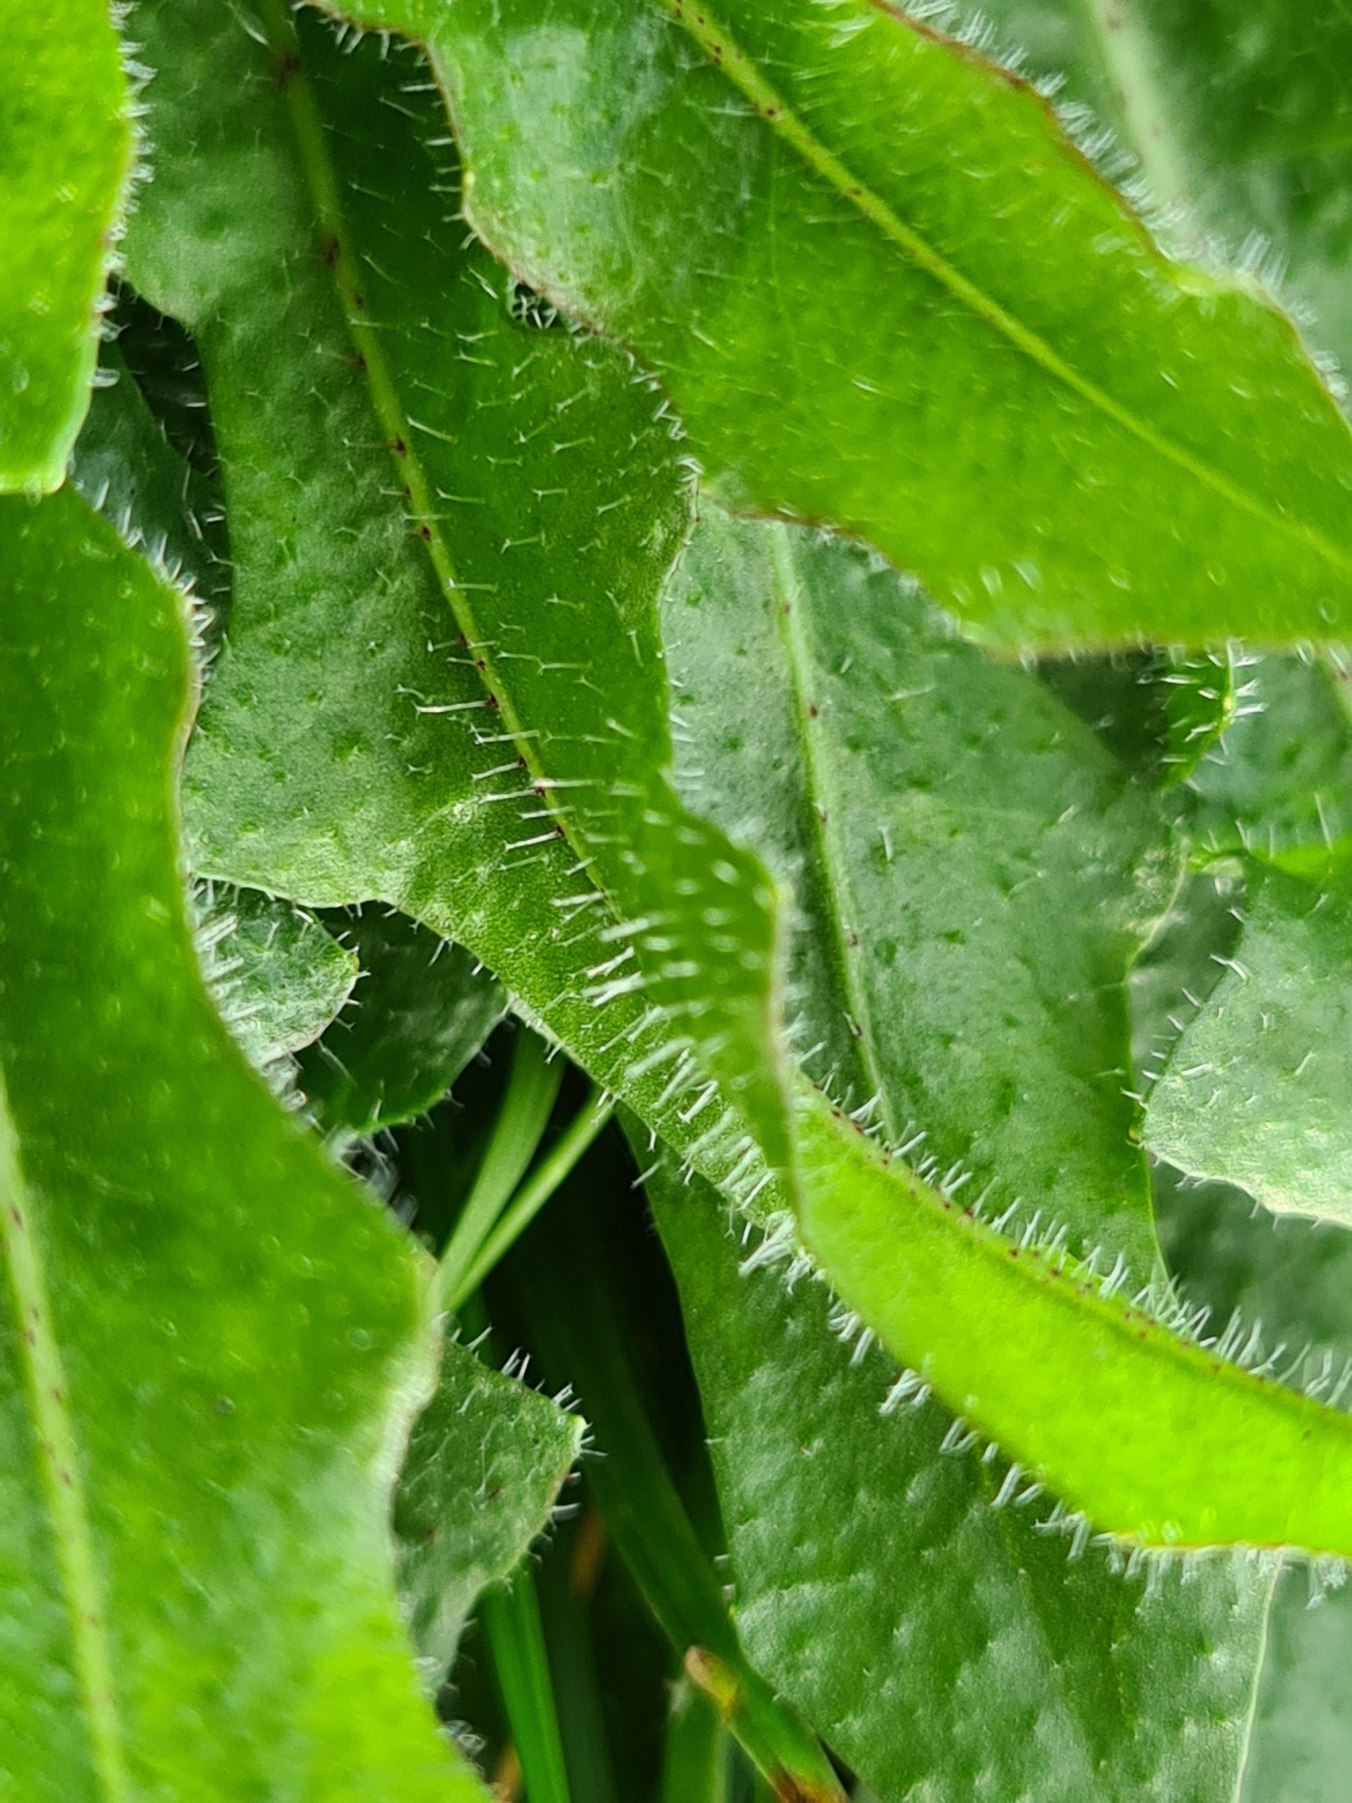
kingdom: Plantae
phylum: Tracheophyta
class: Magnoliopsida
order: Asterales
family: Asteraceae
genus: Thrincia
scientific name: Thrincia saxatilis
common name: Hundesalat
